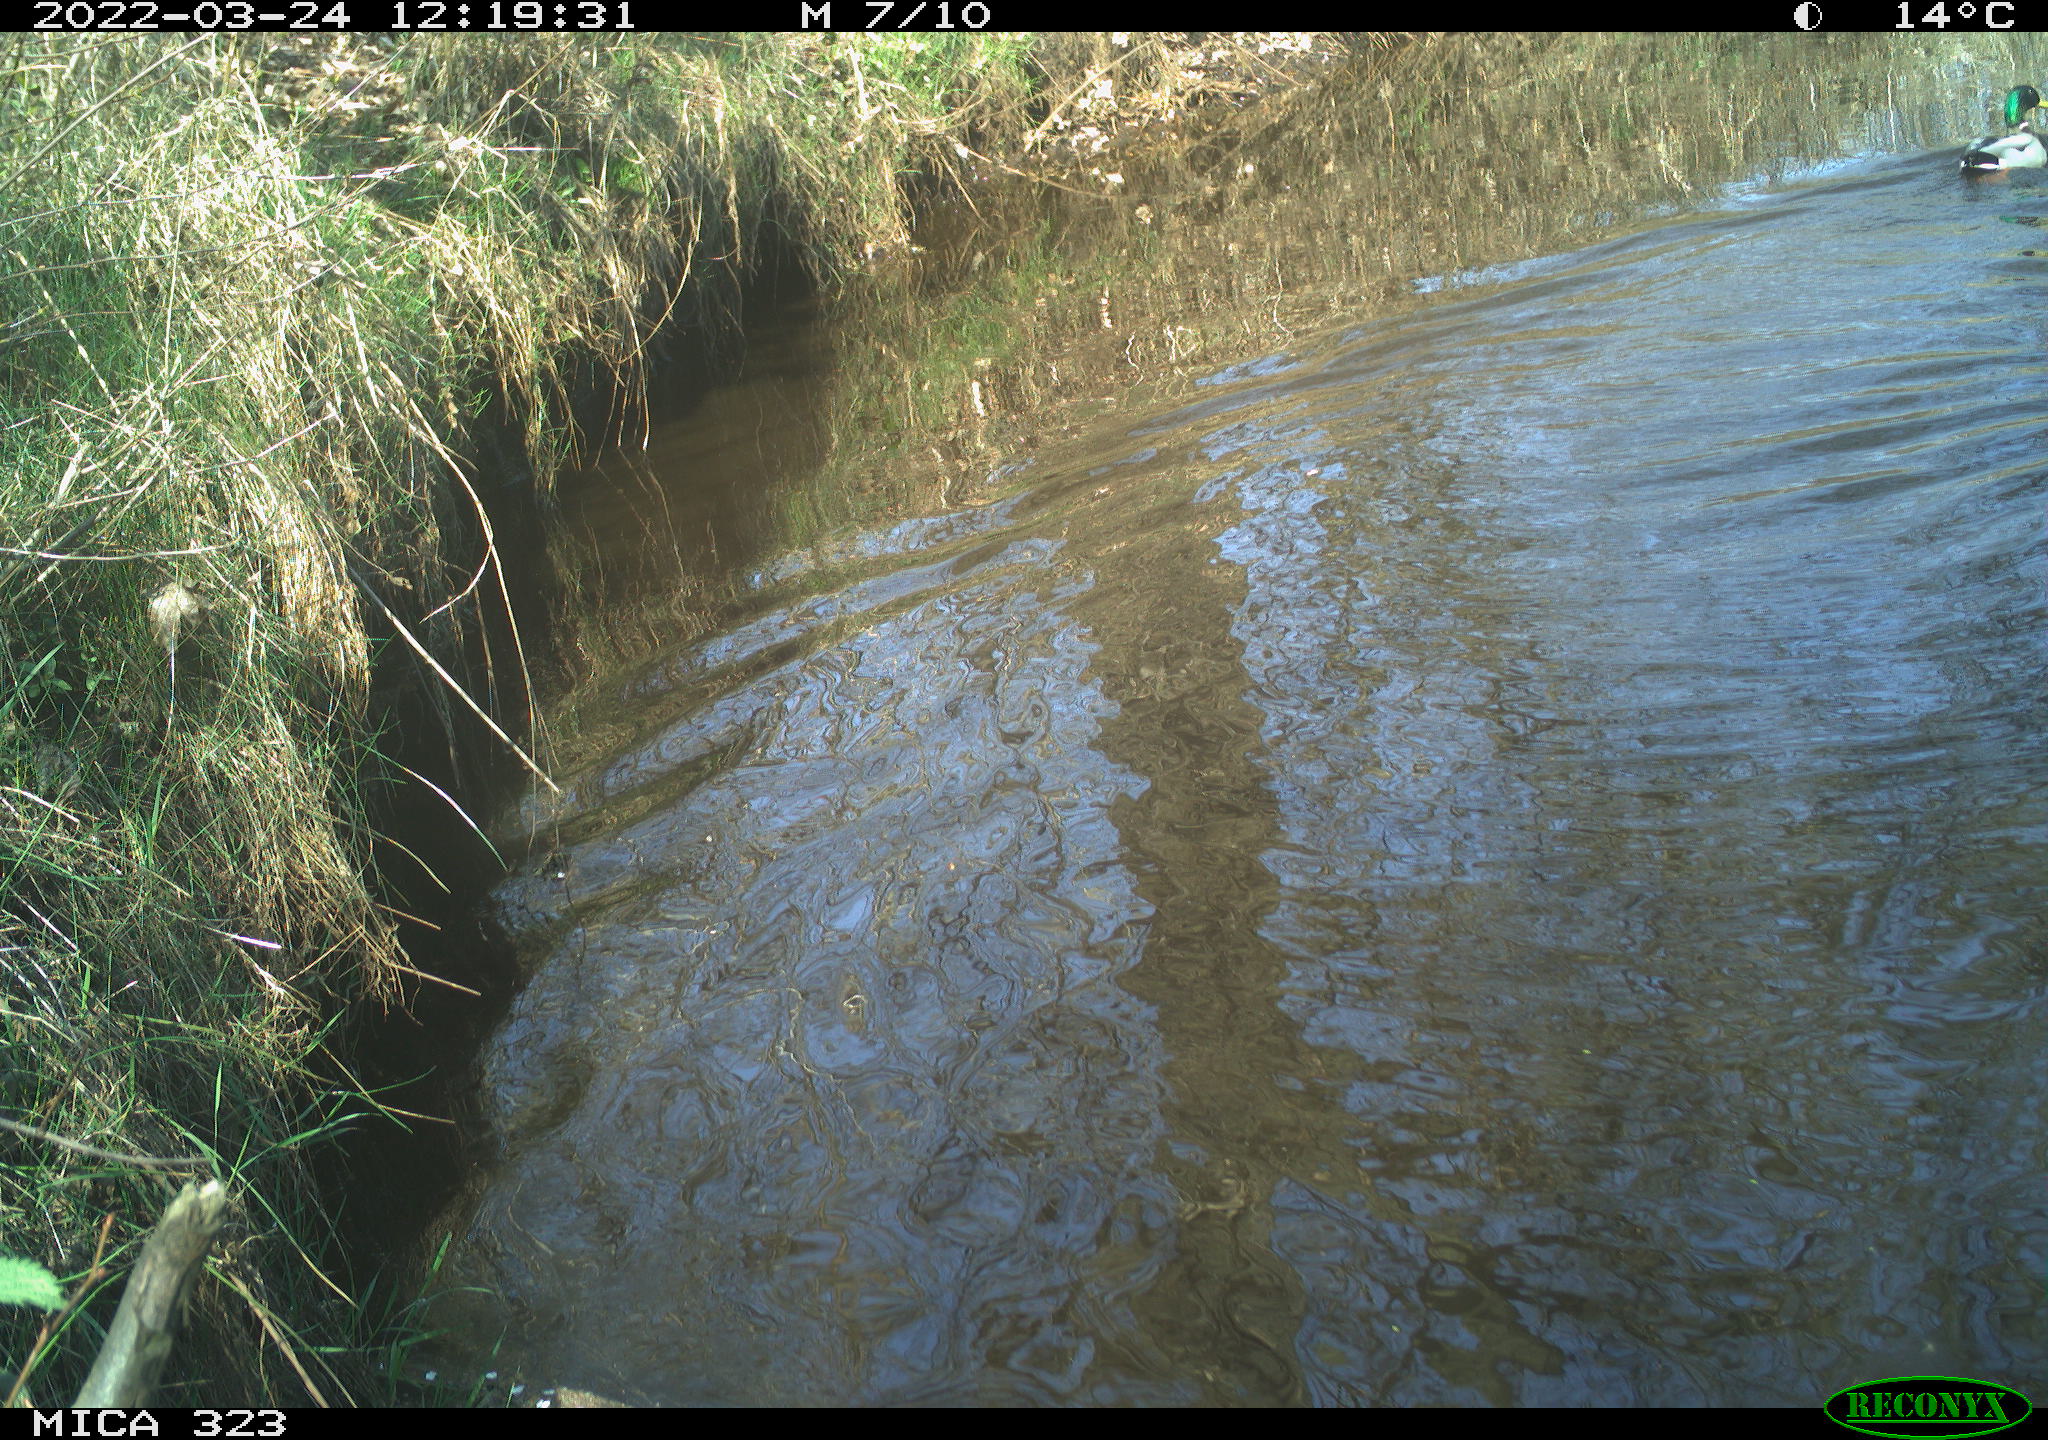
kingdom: Animalia
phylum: Chordata
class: Aves
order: Anseriformes
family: Anatidae
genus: Anas
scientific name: Anas platyrhynchos
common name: Mallard
